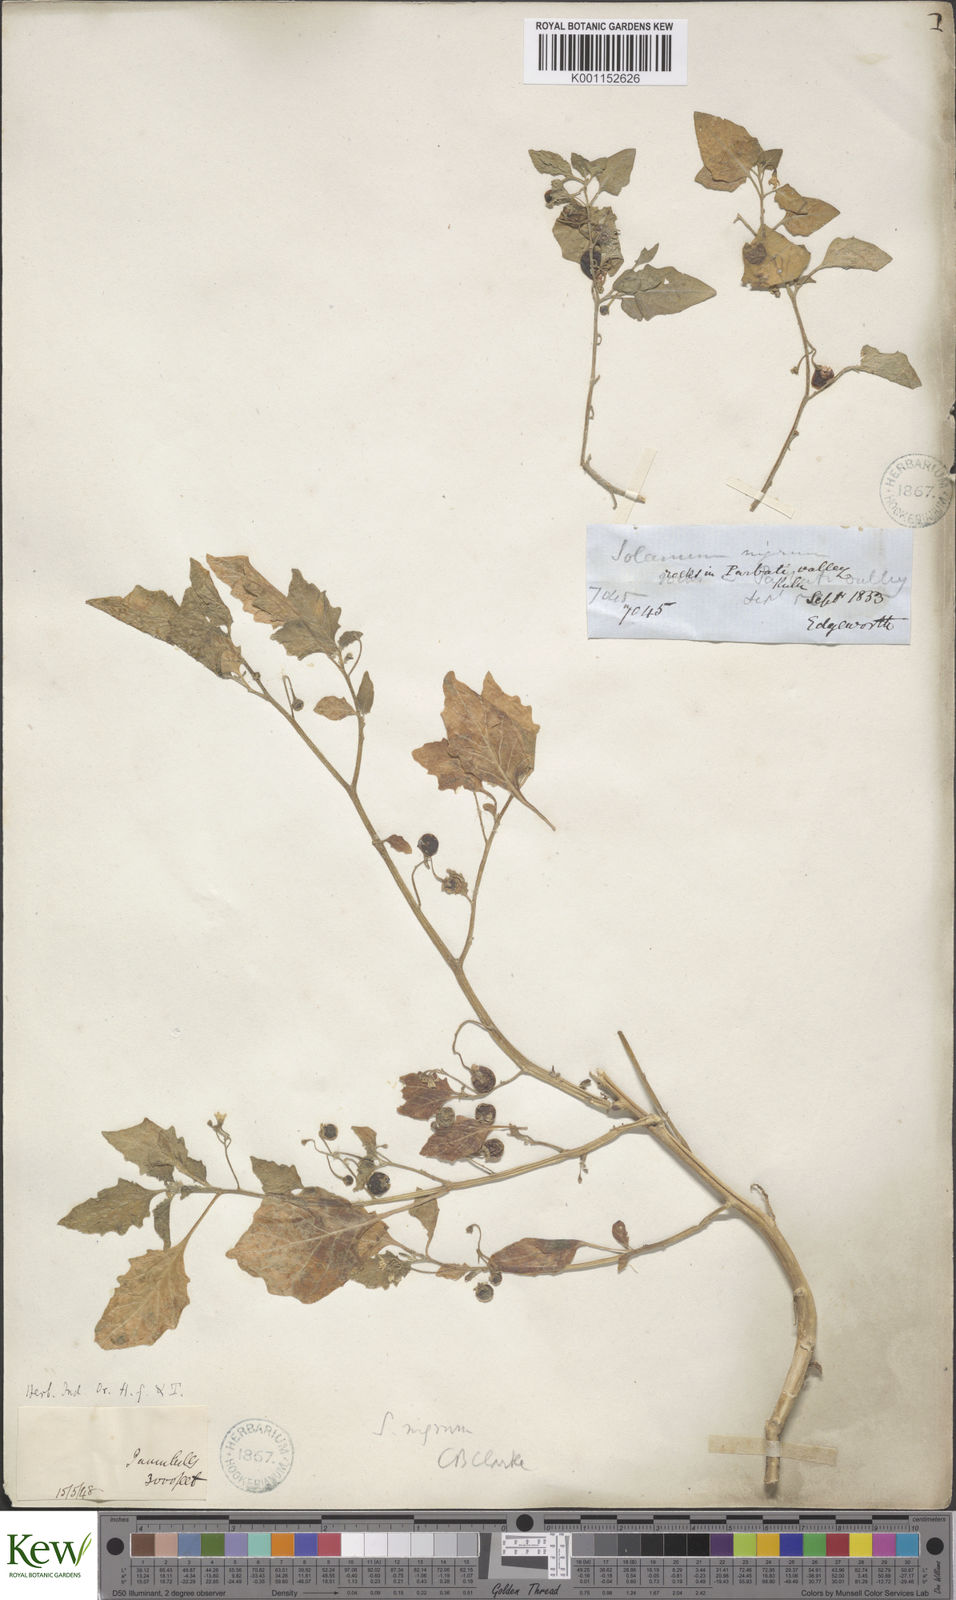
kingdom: Plantae
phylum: Tracheophyta
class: Magnoliopsida
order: Solanales
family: Solanaceae
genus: Solanum
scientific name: Solanum nigrum
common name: Black nightshade
